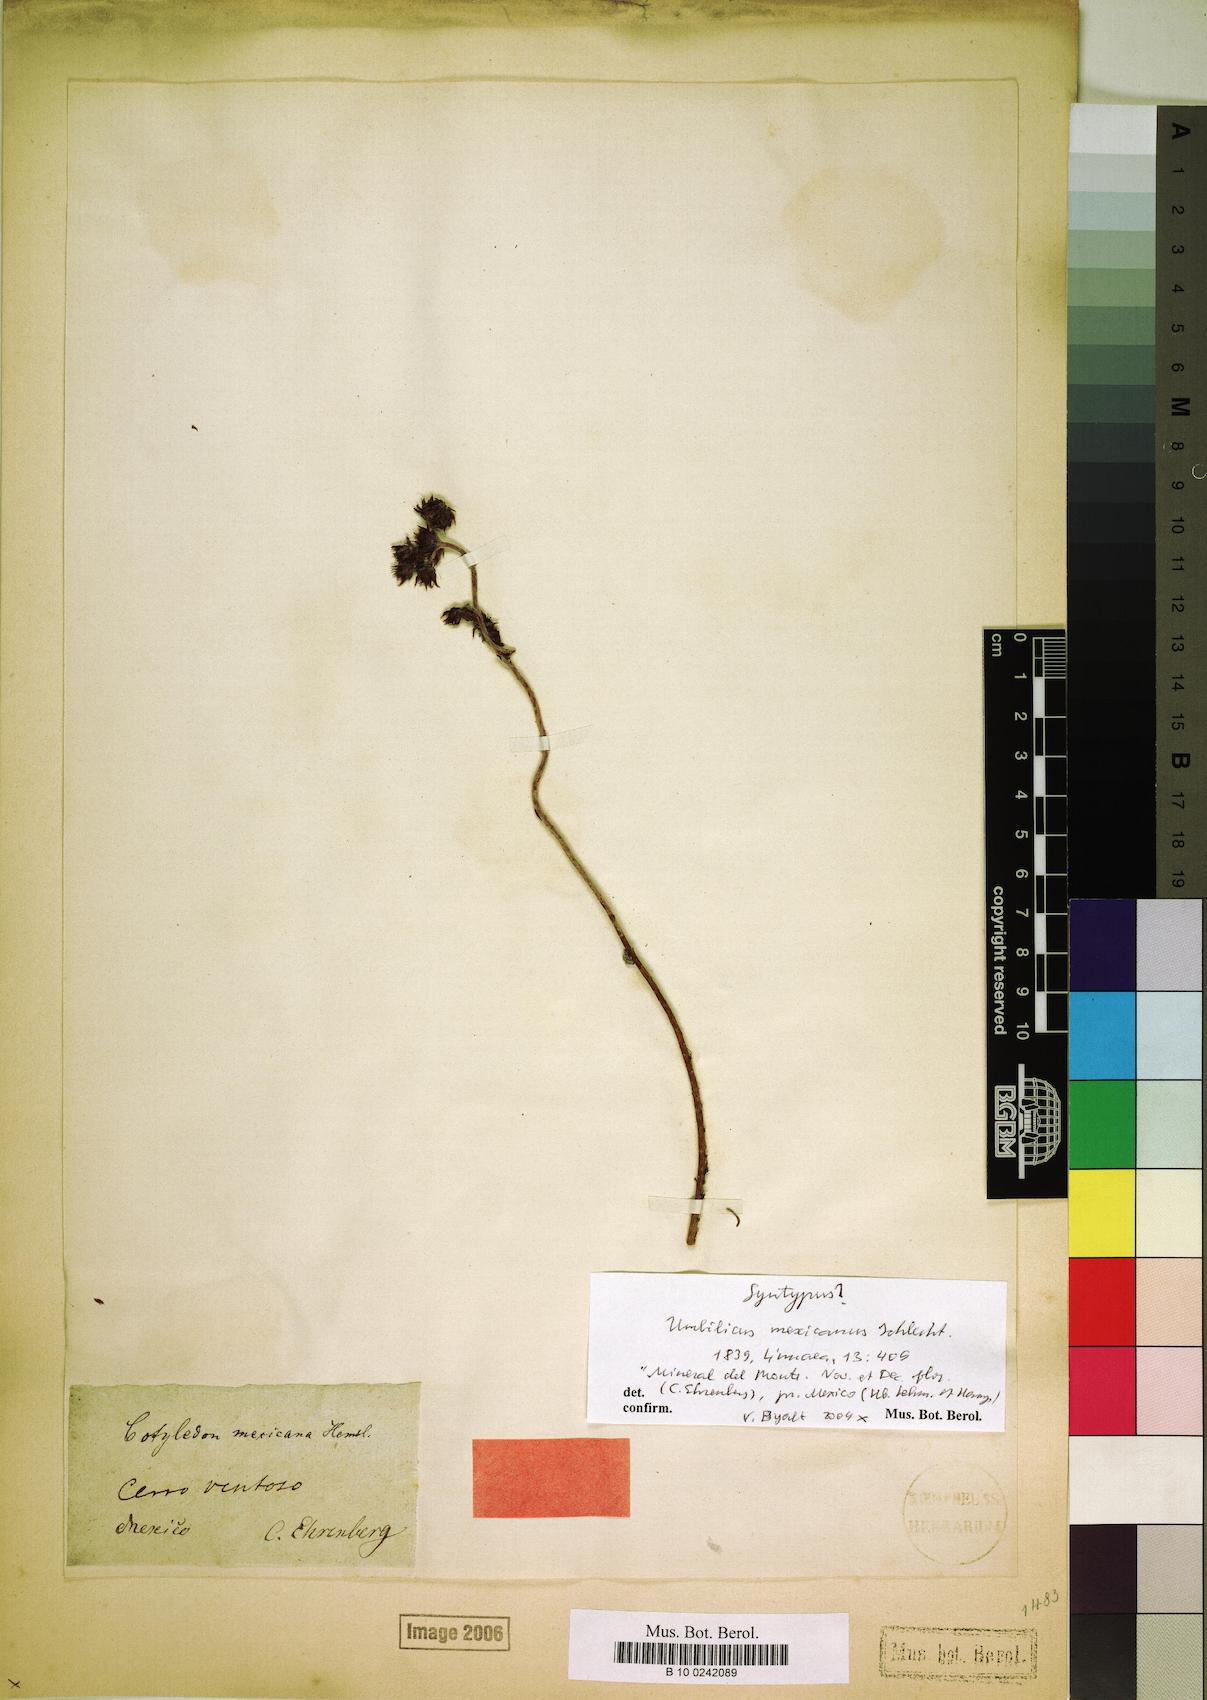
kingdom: Plantae
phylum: Tracheophyta
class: Magnoliopsida
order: Saxifragales
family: Crassulaceae
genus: Sedum
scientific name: Sedum goldmanii
